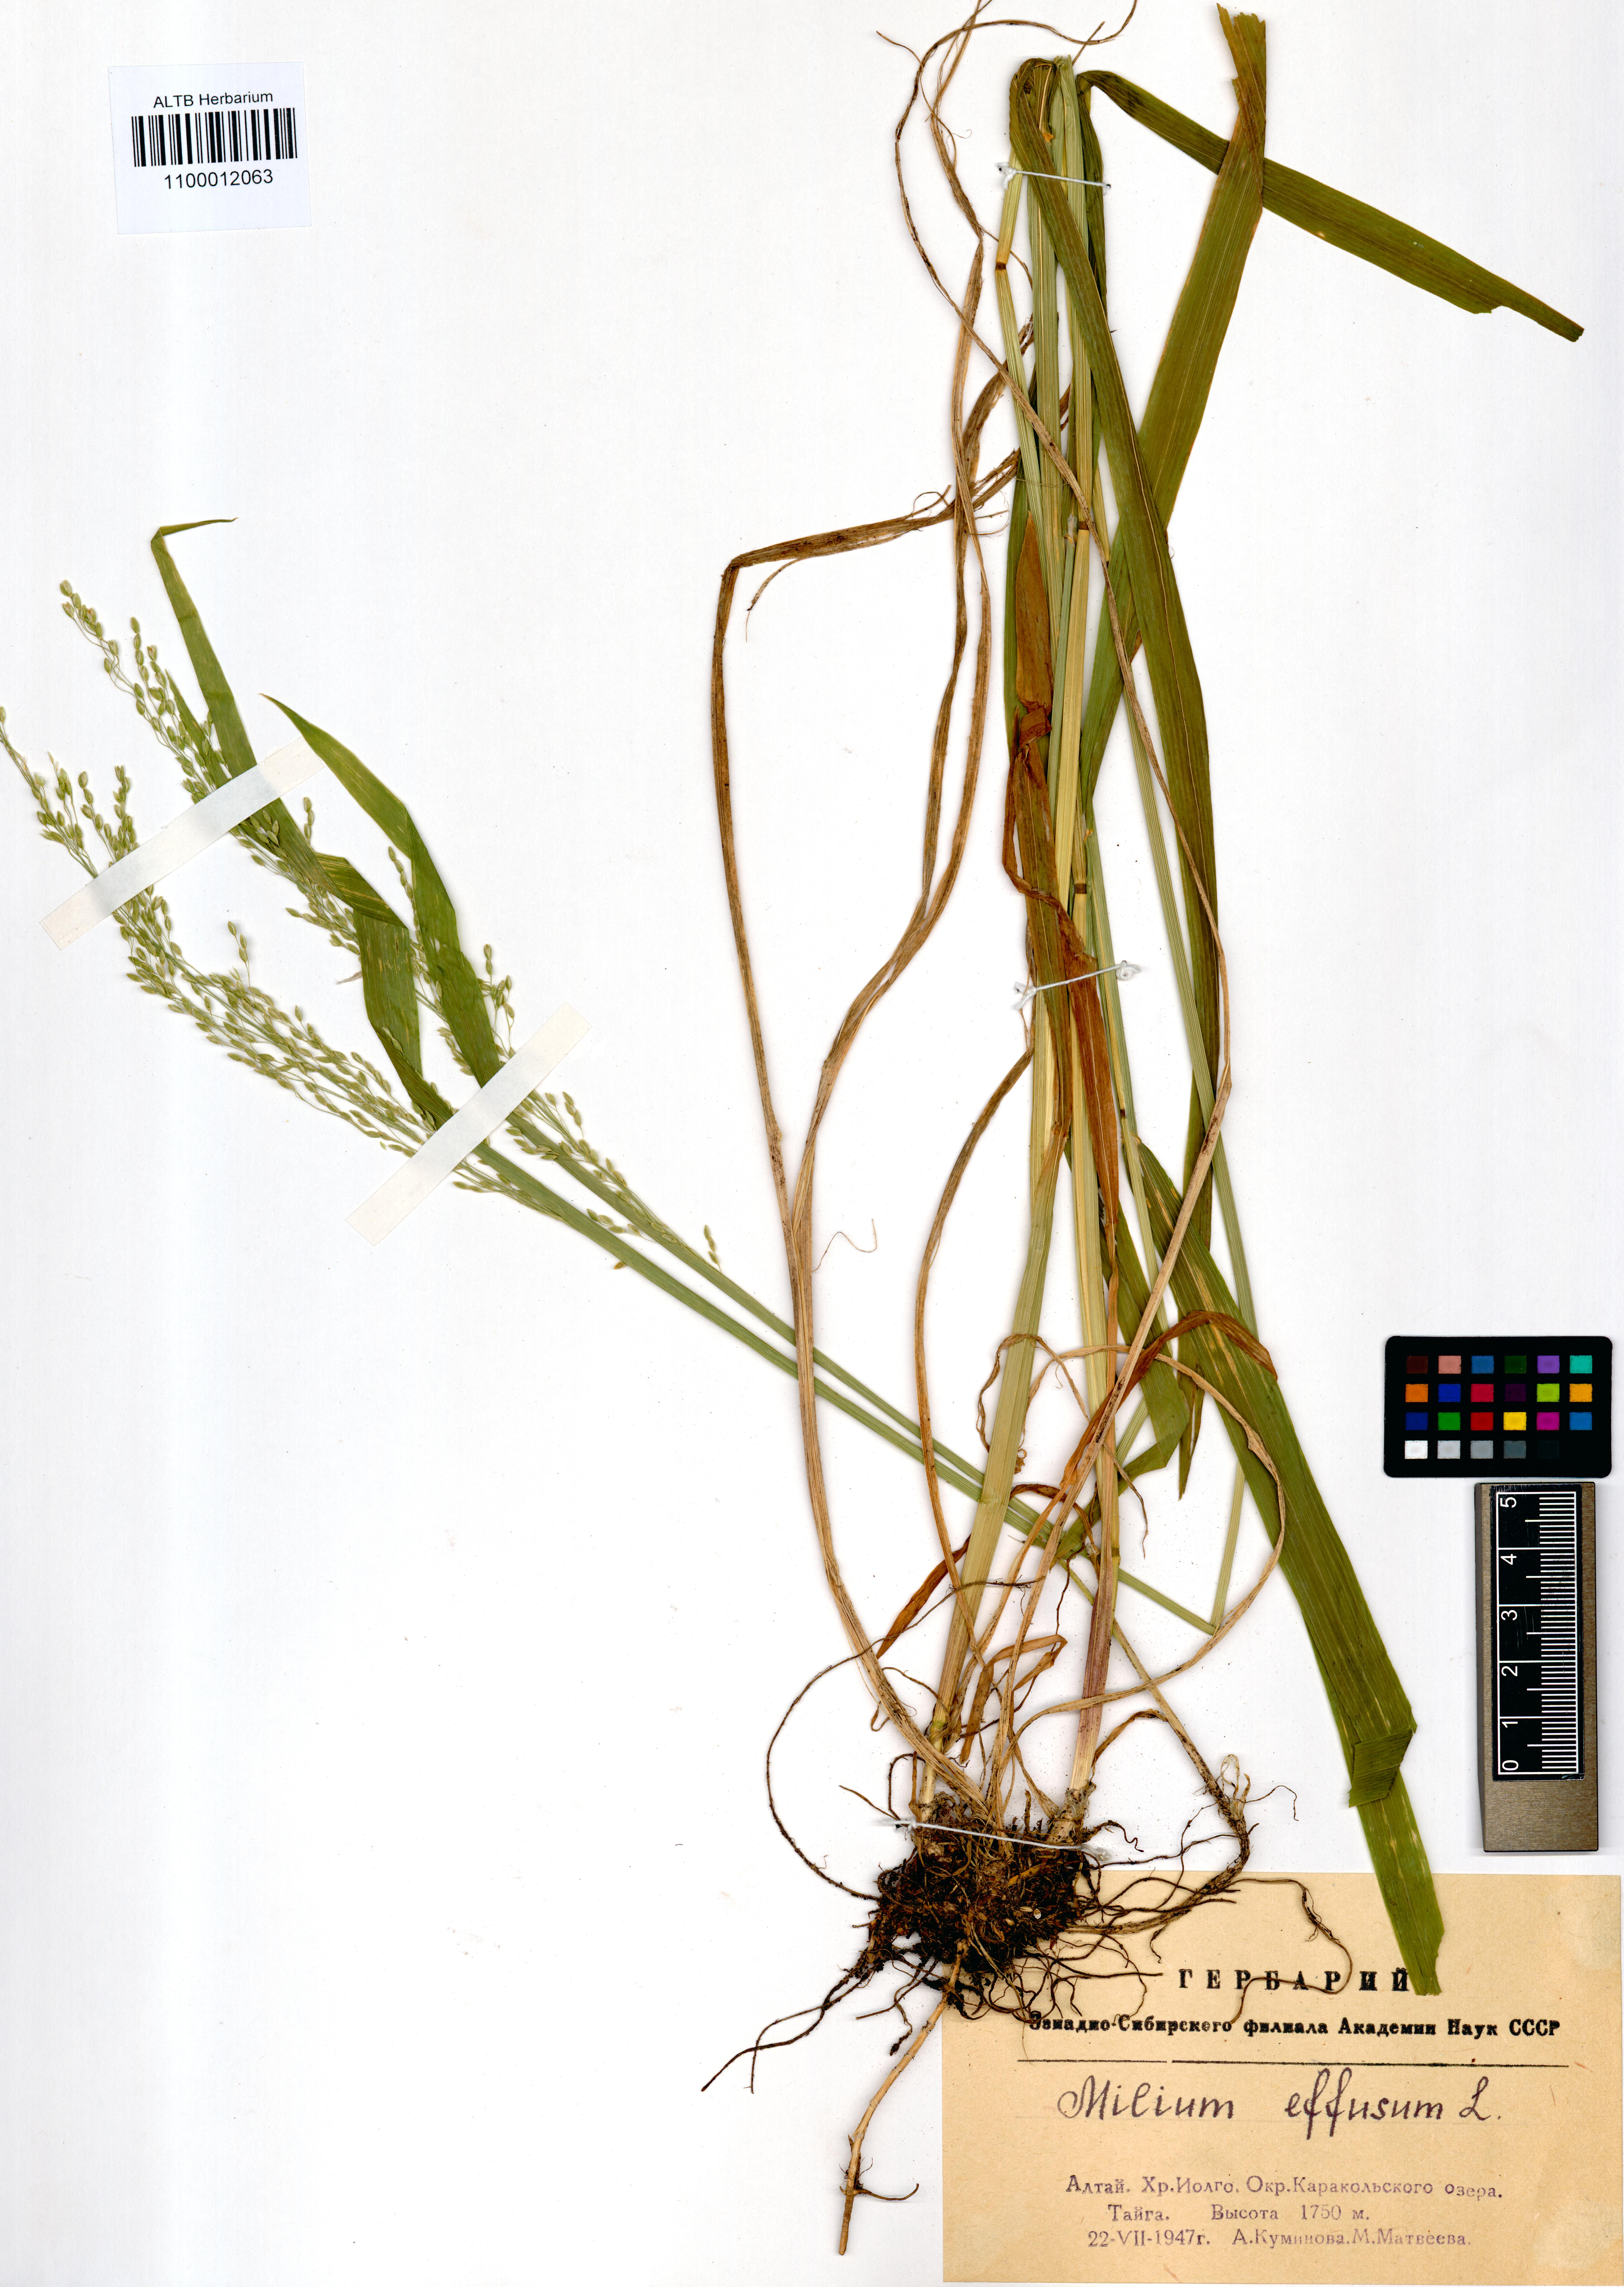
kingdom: Plantae
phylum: Tracheophyta
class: Liliopsida
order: Poales
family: Poaceae
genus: Milium
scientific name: Milium effusum
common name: Wood millet
